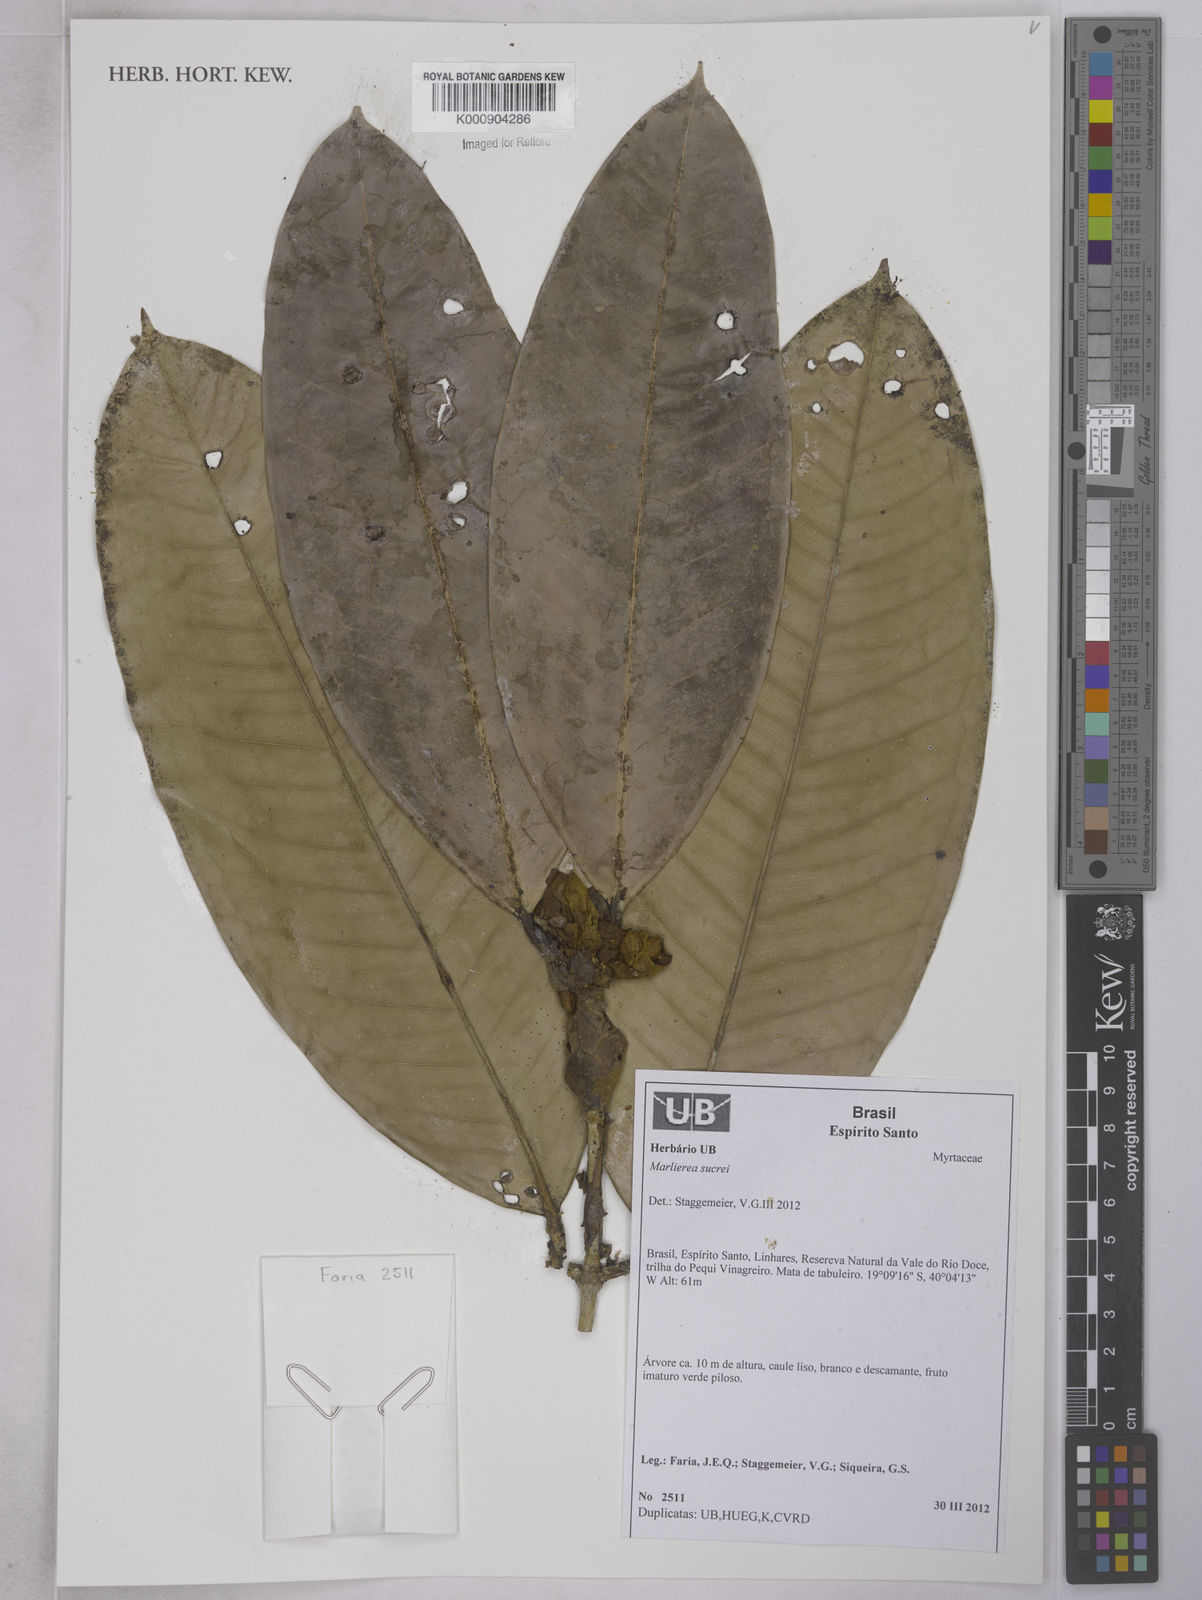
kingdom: Plantae
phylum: Tracheophyta
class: Magnoliopsida
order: Myrtales
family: Myrtaceae
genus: Myrcia
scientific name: Myrcia sucrei
